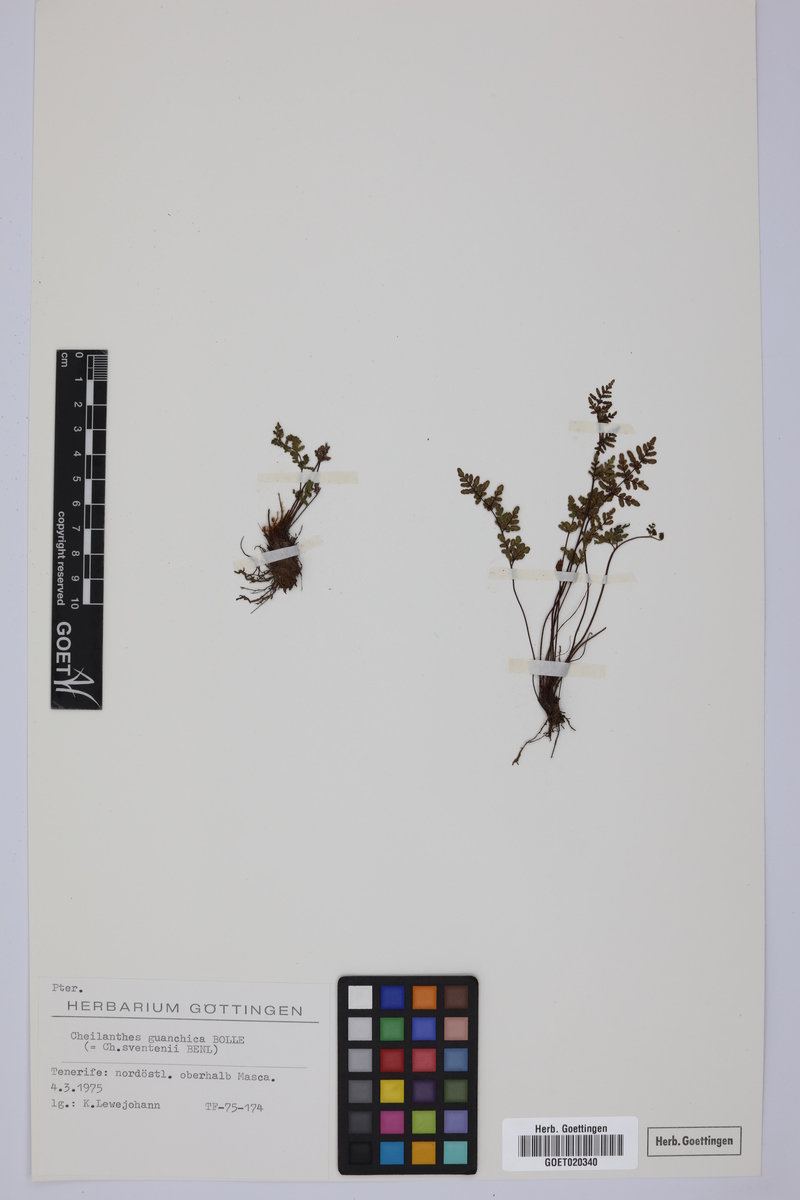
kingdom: Plantae
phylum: Tracheophyta
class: Polypodiopsida
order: Polypodiales
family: Pteridaceae
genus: Oeosporangium
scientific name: Oeosporangium guanchicum
